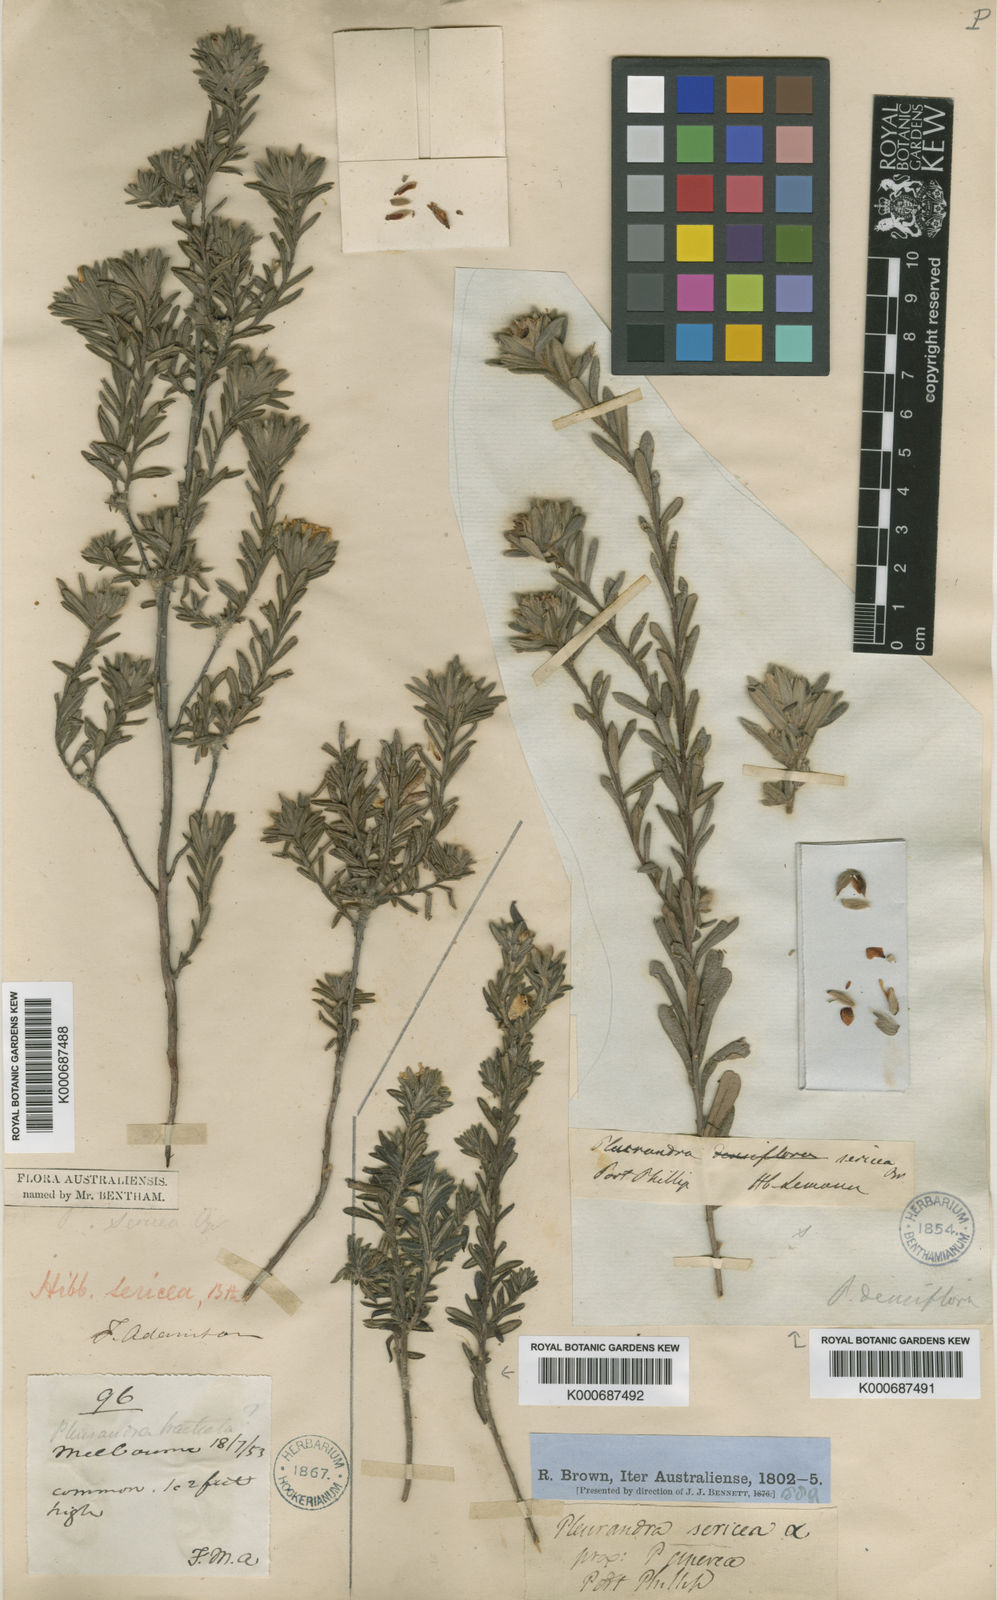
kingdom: Plantae
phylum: Tracheophyta
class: Magnoliopsida
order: Dilleniales
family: Dilleniaceae
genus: Hibbertia
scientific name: Hibbertia sericea
